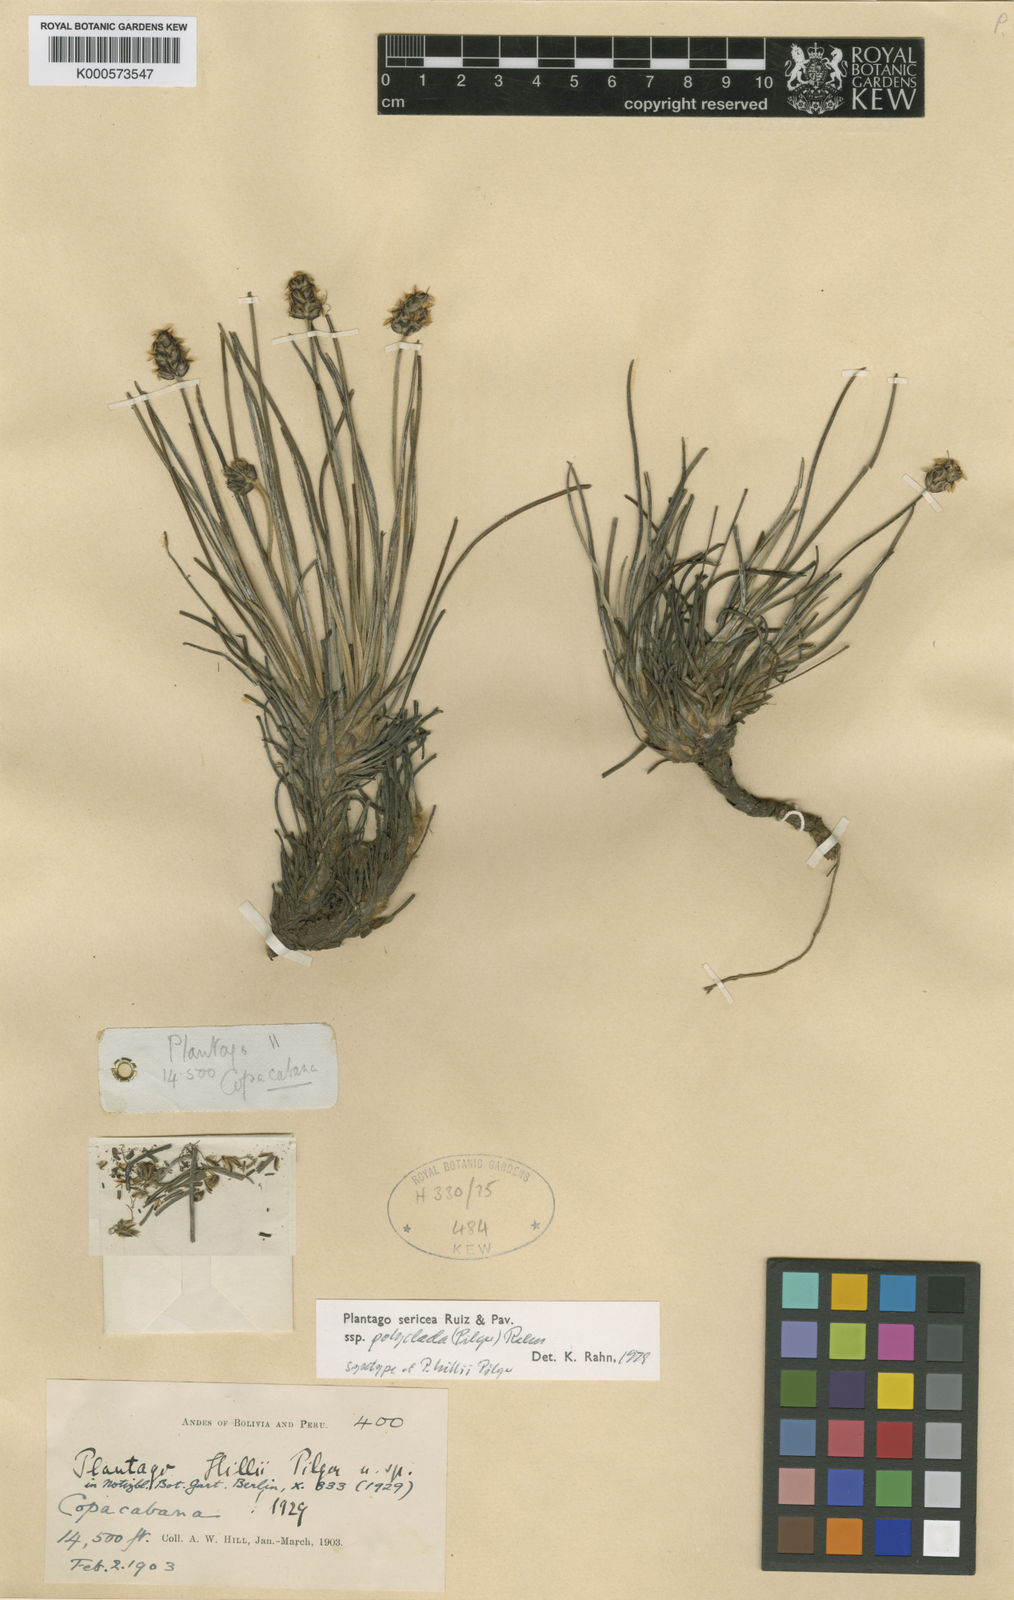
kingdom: Plantae
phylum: Tracheophyta
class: Magnoliopsida
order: Lamiales
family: Plantaginaceae
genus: Plantago
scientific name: Plantago sericea
